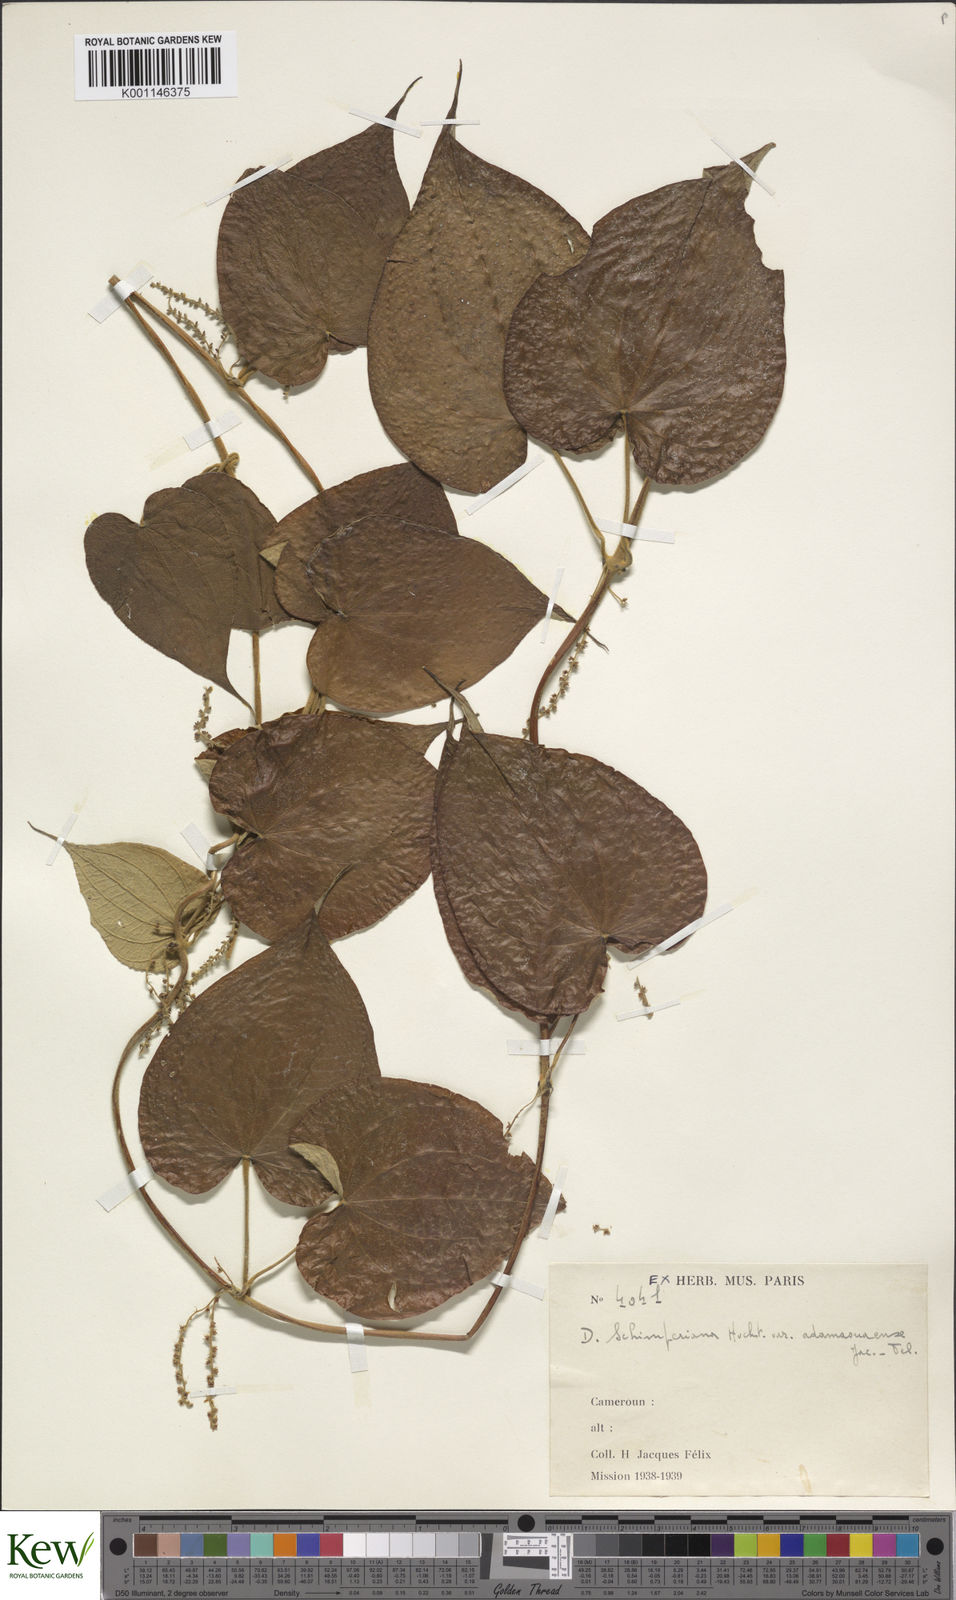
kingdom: Plantae
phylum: Tracheophyta
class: Liliopsida
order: Dioscoreales
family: Dioscoreaceae
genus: Dioscorea
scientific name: Dioscorea schimperiana
